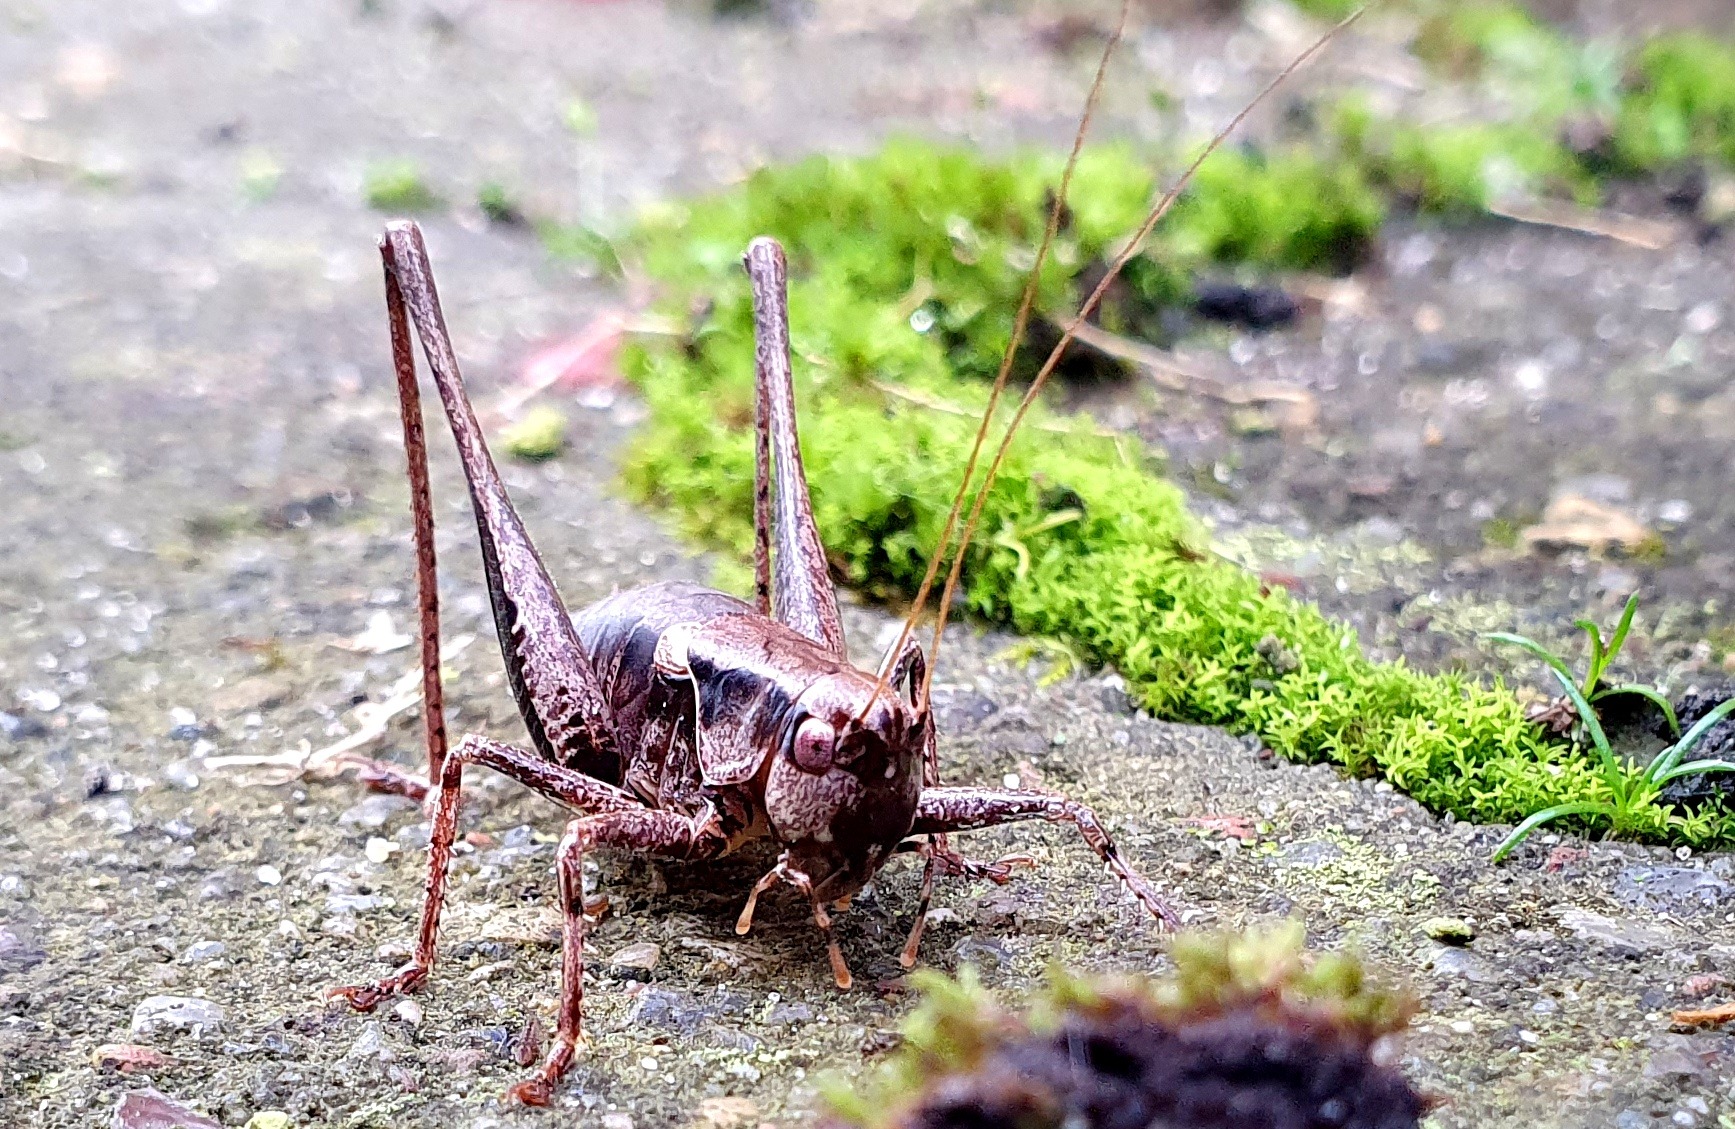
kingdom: Animalia
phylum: Arthropoda
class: Insecta
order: Orthoptera
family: Tettigoniidae
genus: Pholidoptera
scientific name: Pholidoptera griseoaptera
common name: Buskgræshoppe
